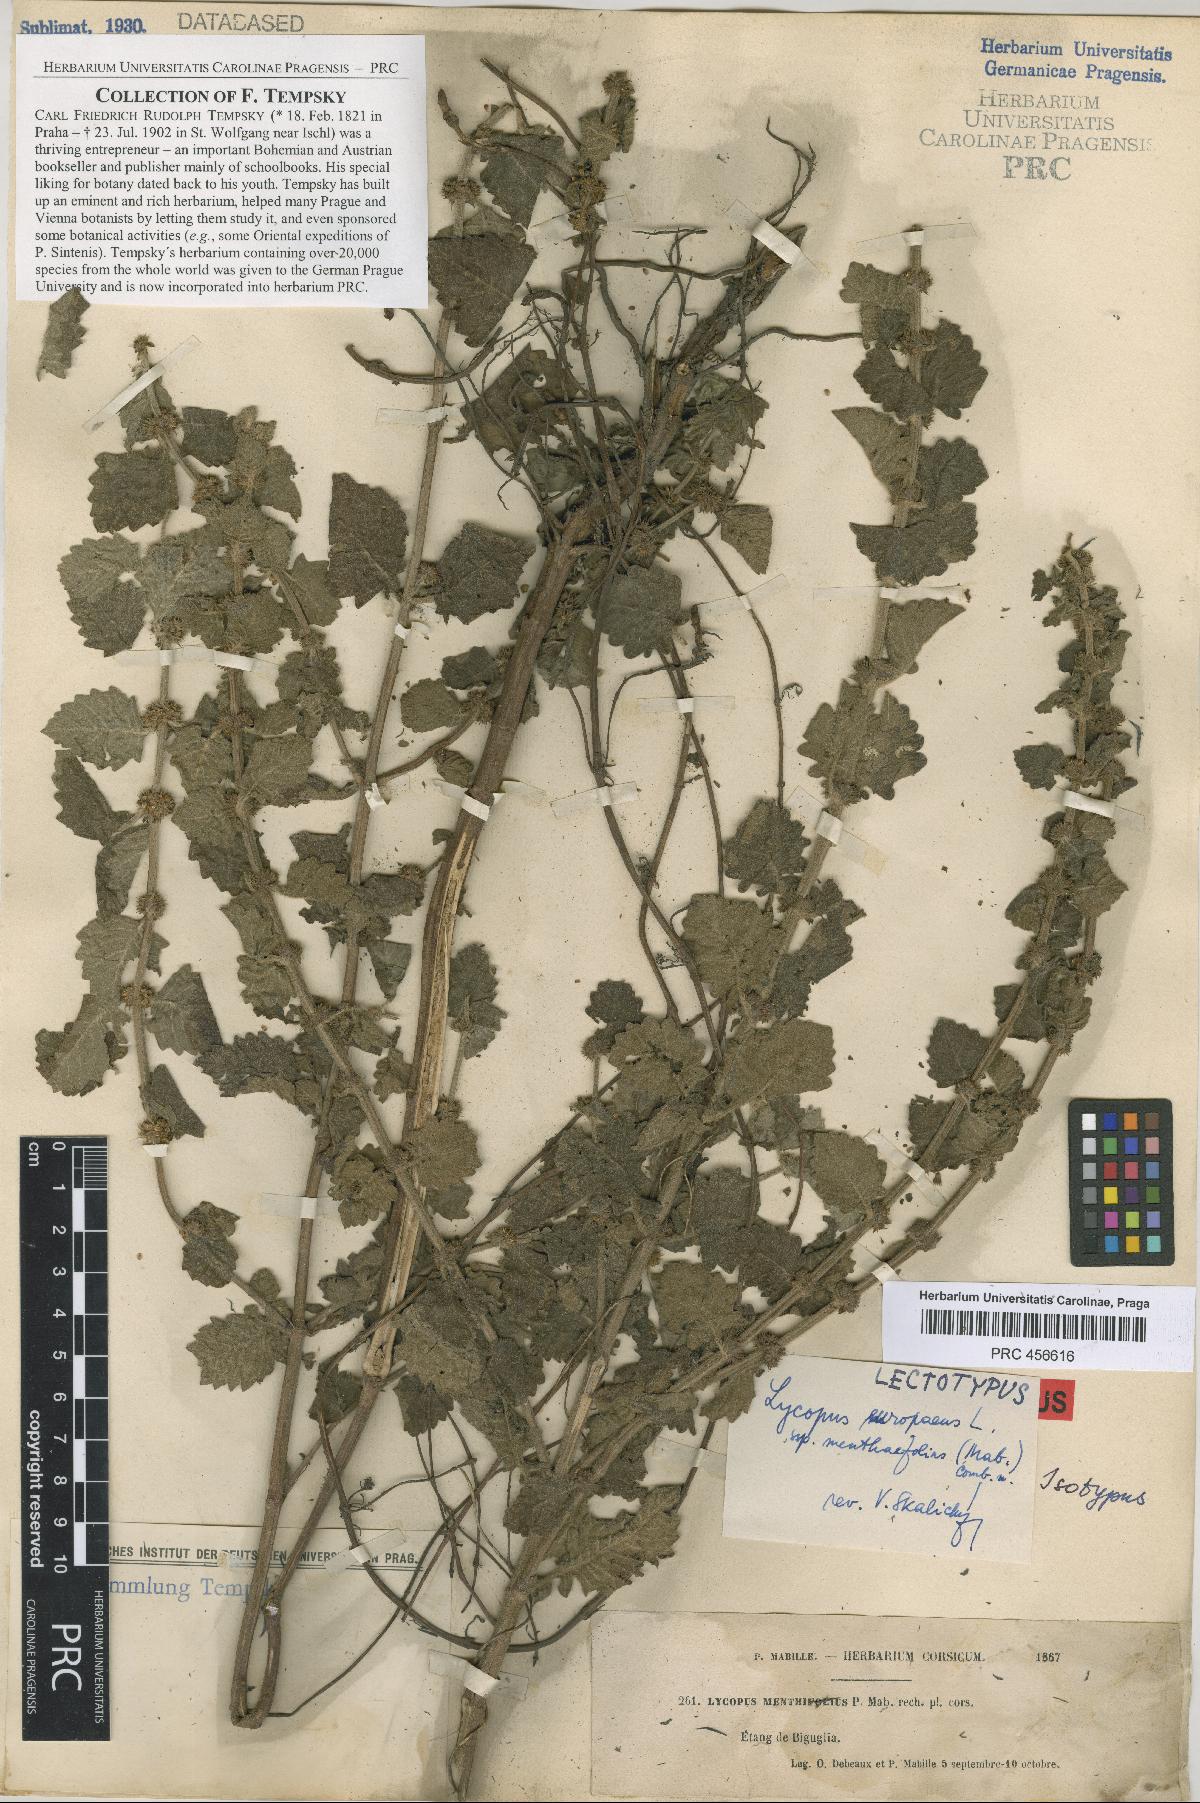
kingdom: Plantae
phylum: Tracheophyta
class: Magnoliopsida
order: Lamiales
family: Lamiaceae
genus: Lycopus
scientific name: Lycopus europaeus
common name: European bugleweed
